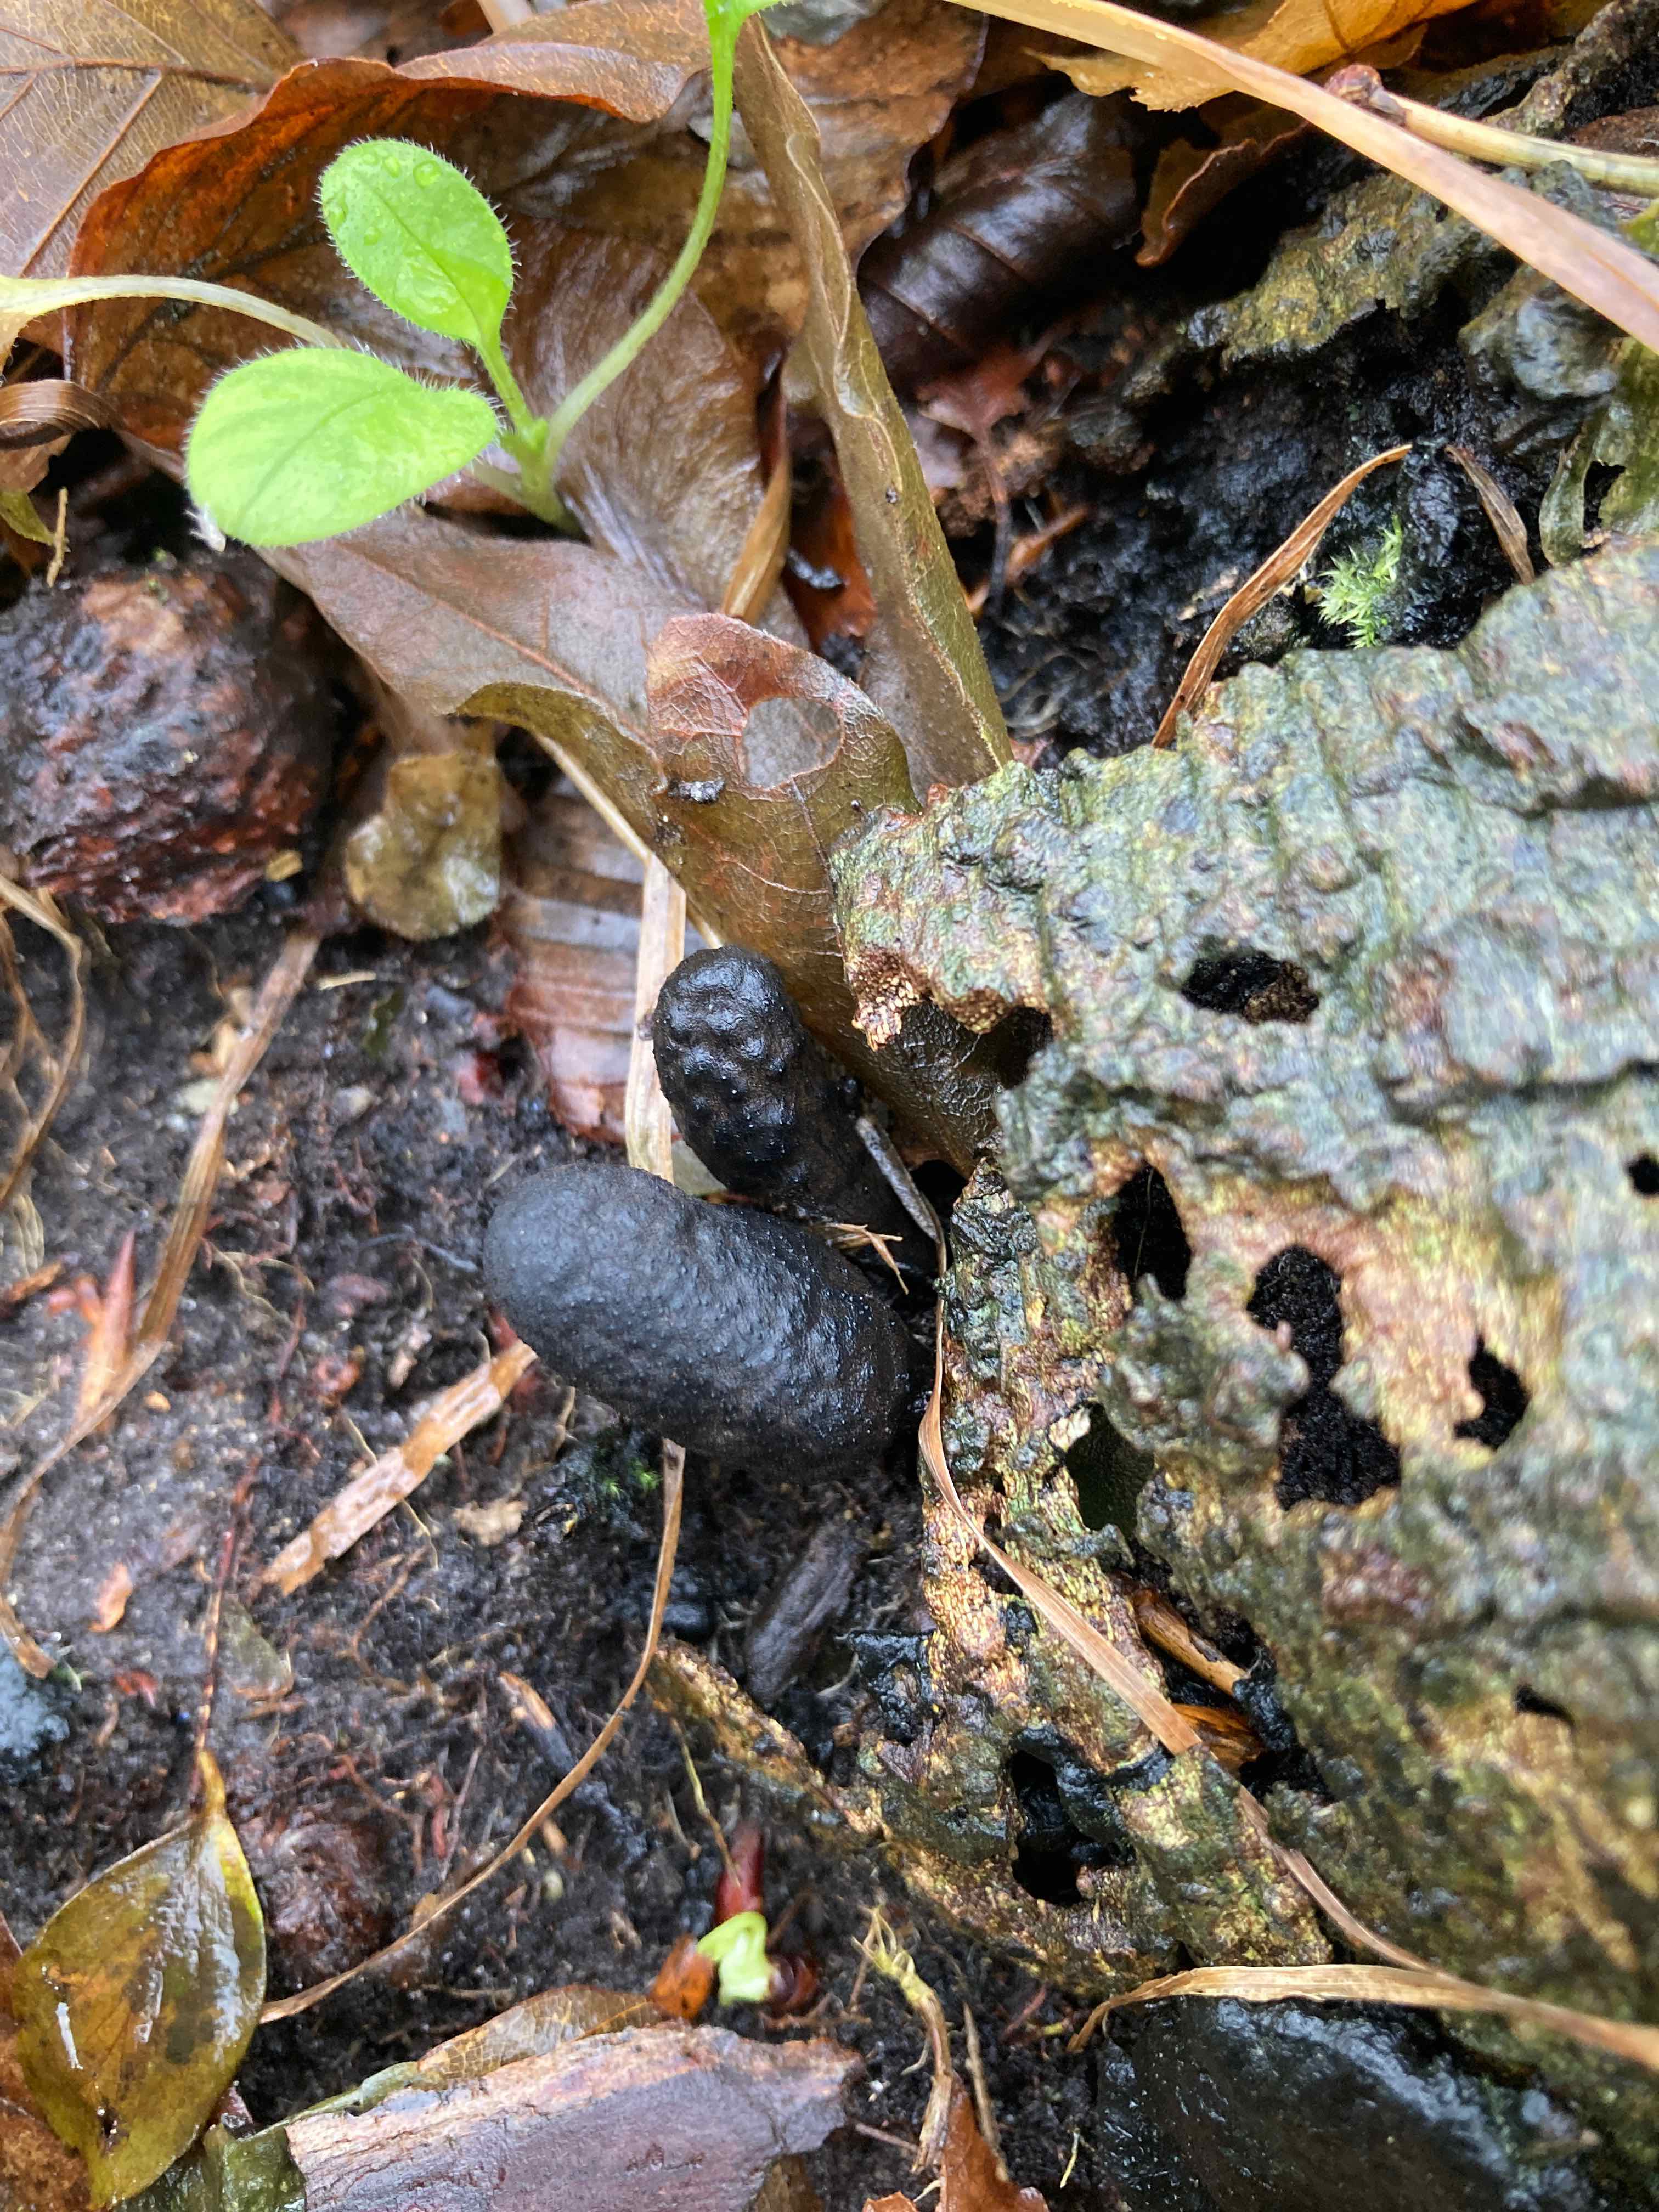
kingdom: Fungi
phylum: Ascomycota
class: Sordariomycetes
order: Xylariales
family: Xylariaceae
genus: Xylaria
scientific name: Xylaria polymorpha
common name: kølle-stødsvamp
